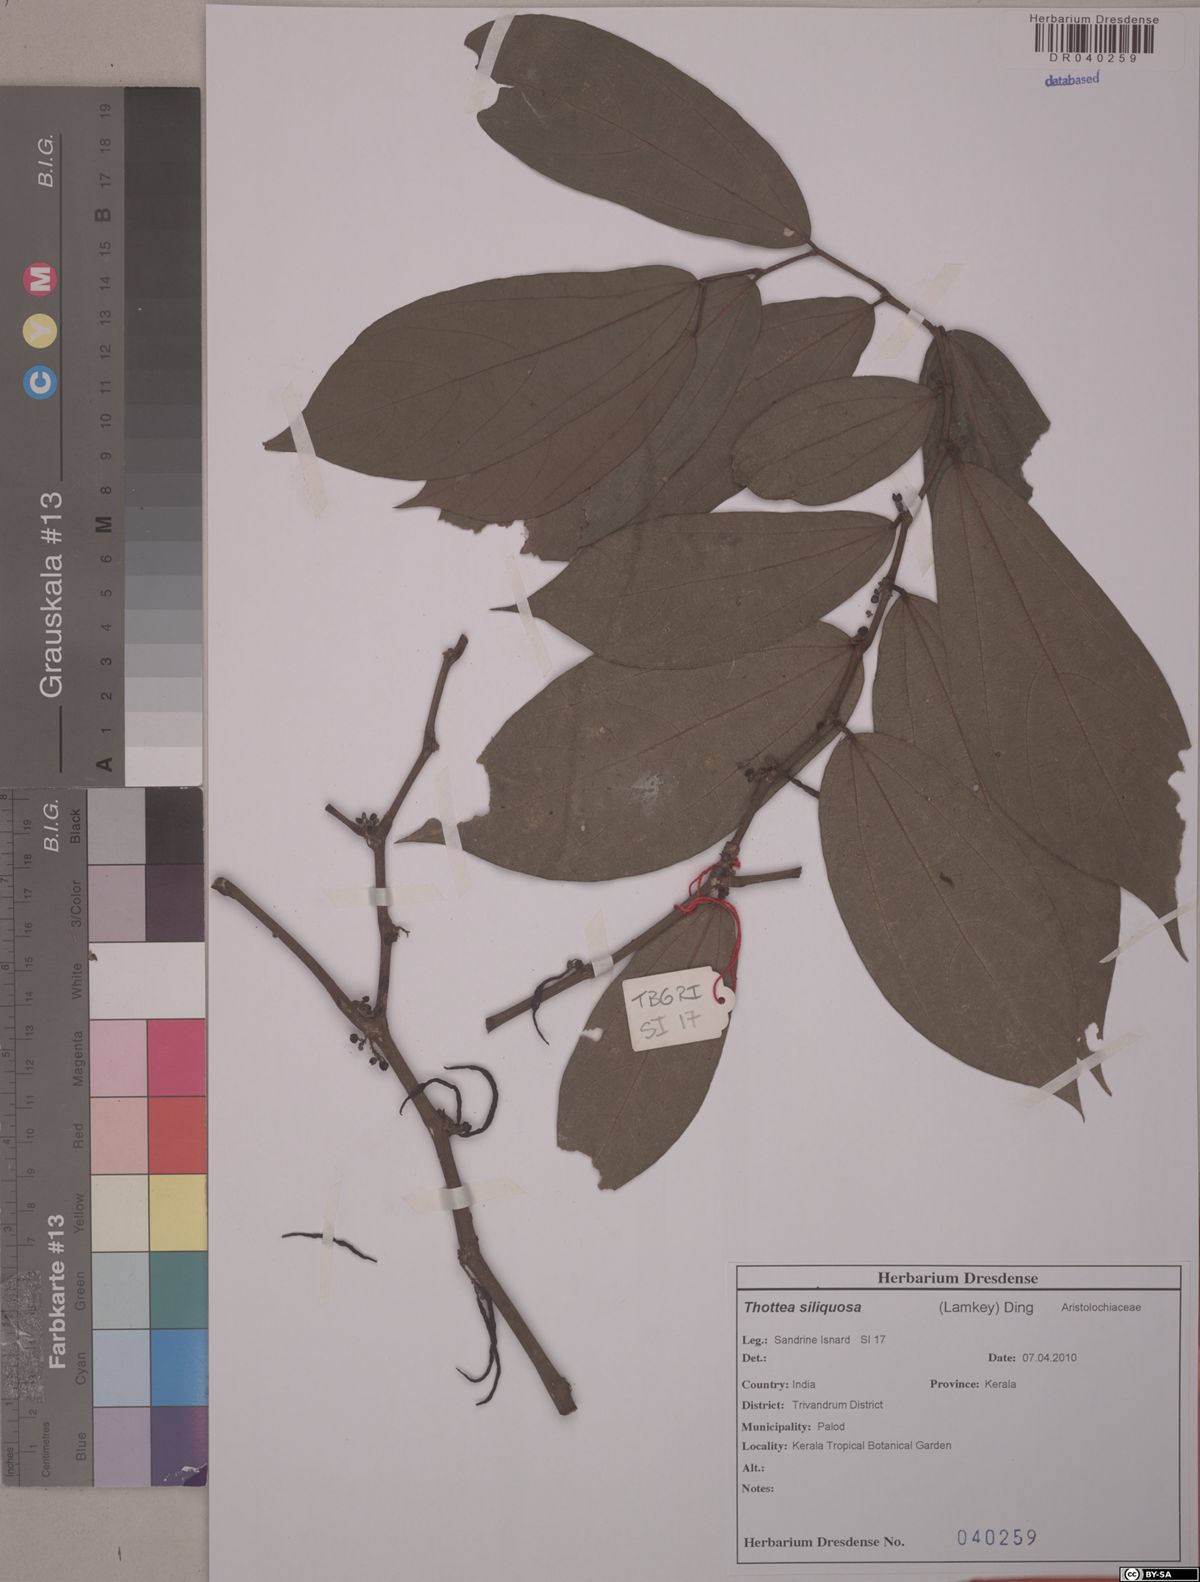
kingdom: Plantae
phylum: Tracheophyta
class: Magnoliopsida
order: Piperales
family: Aristolochiaceae
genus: Thottea
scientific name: Thottea siliquosa
